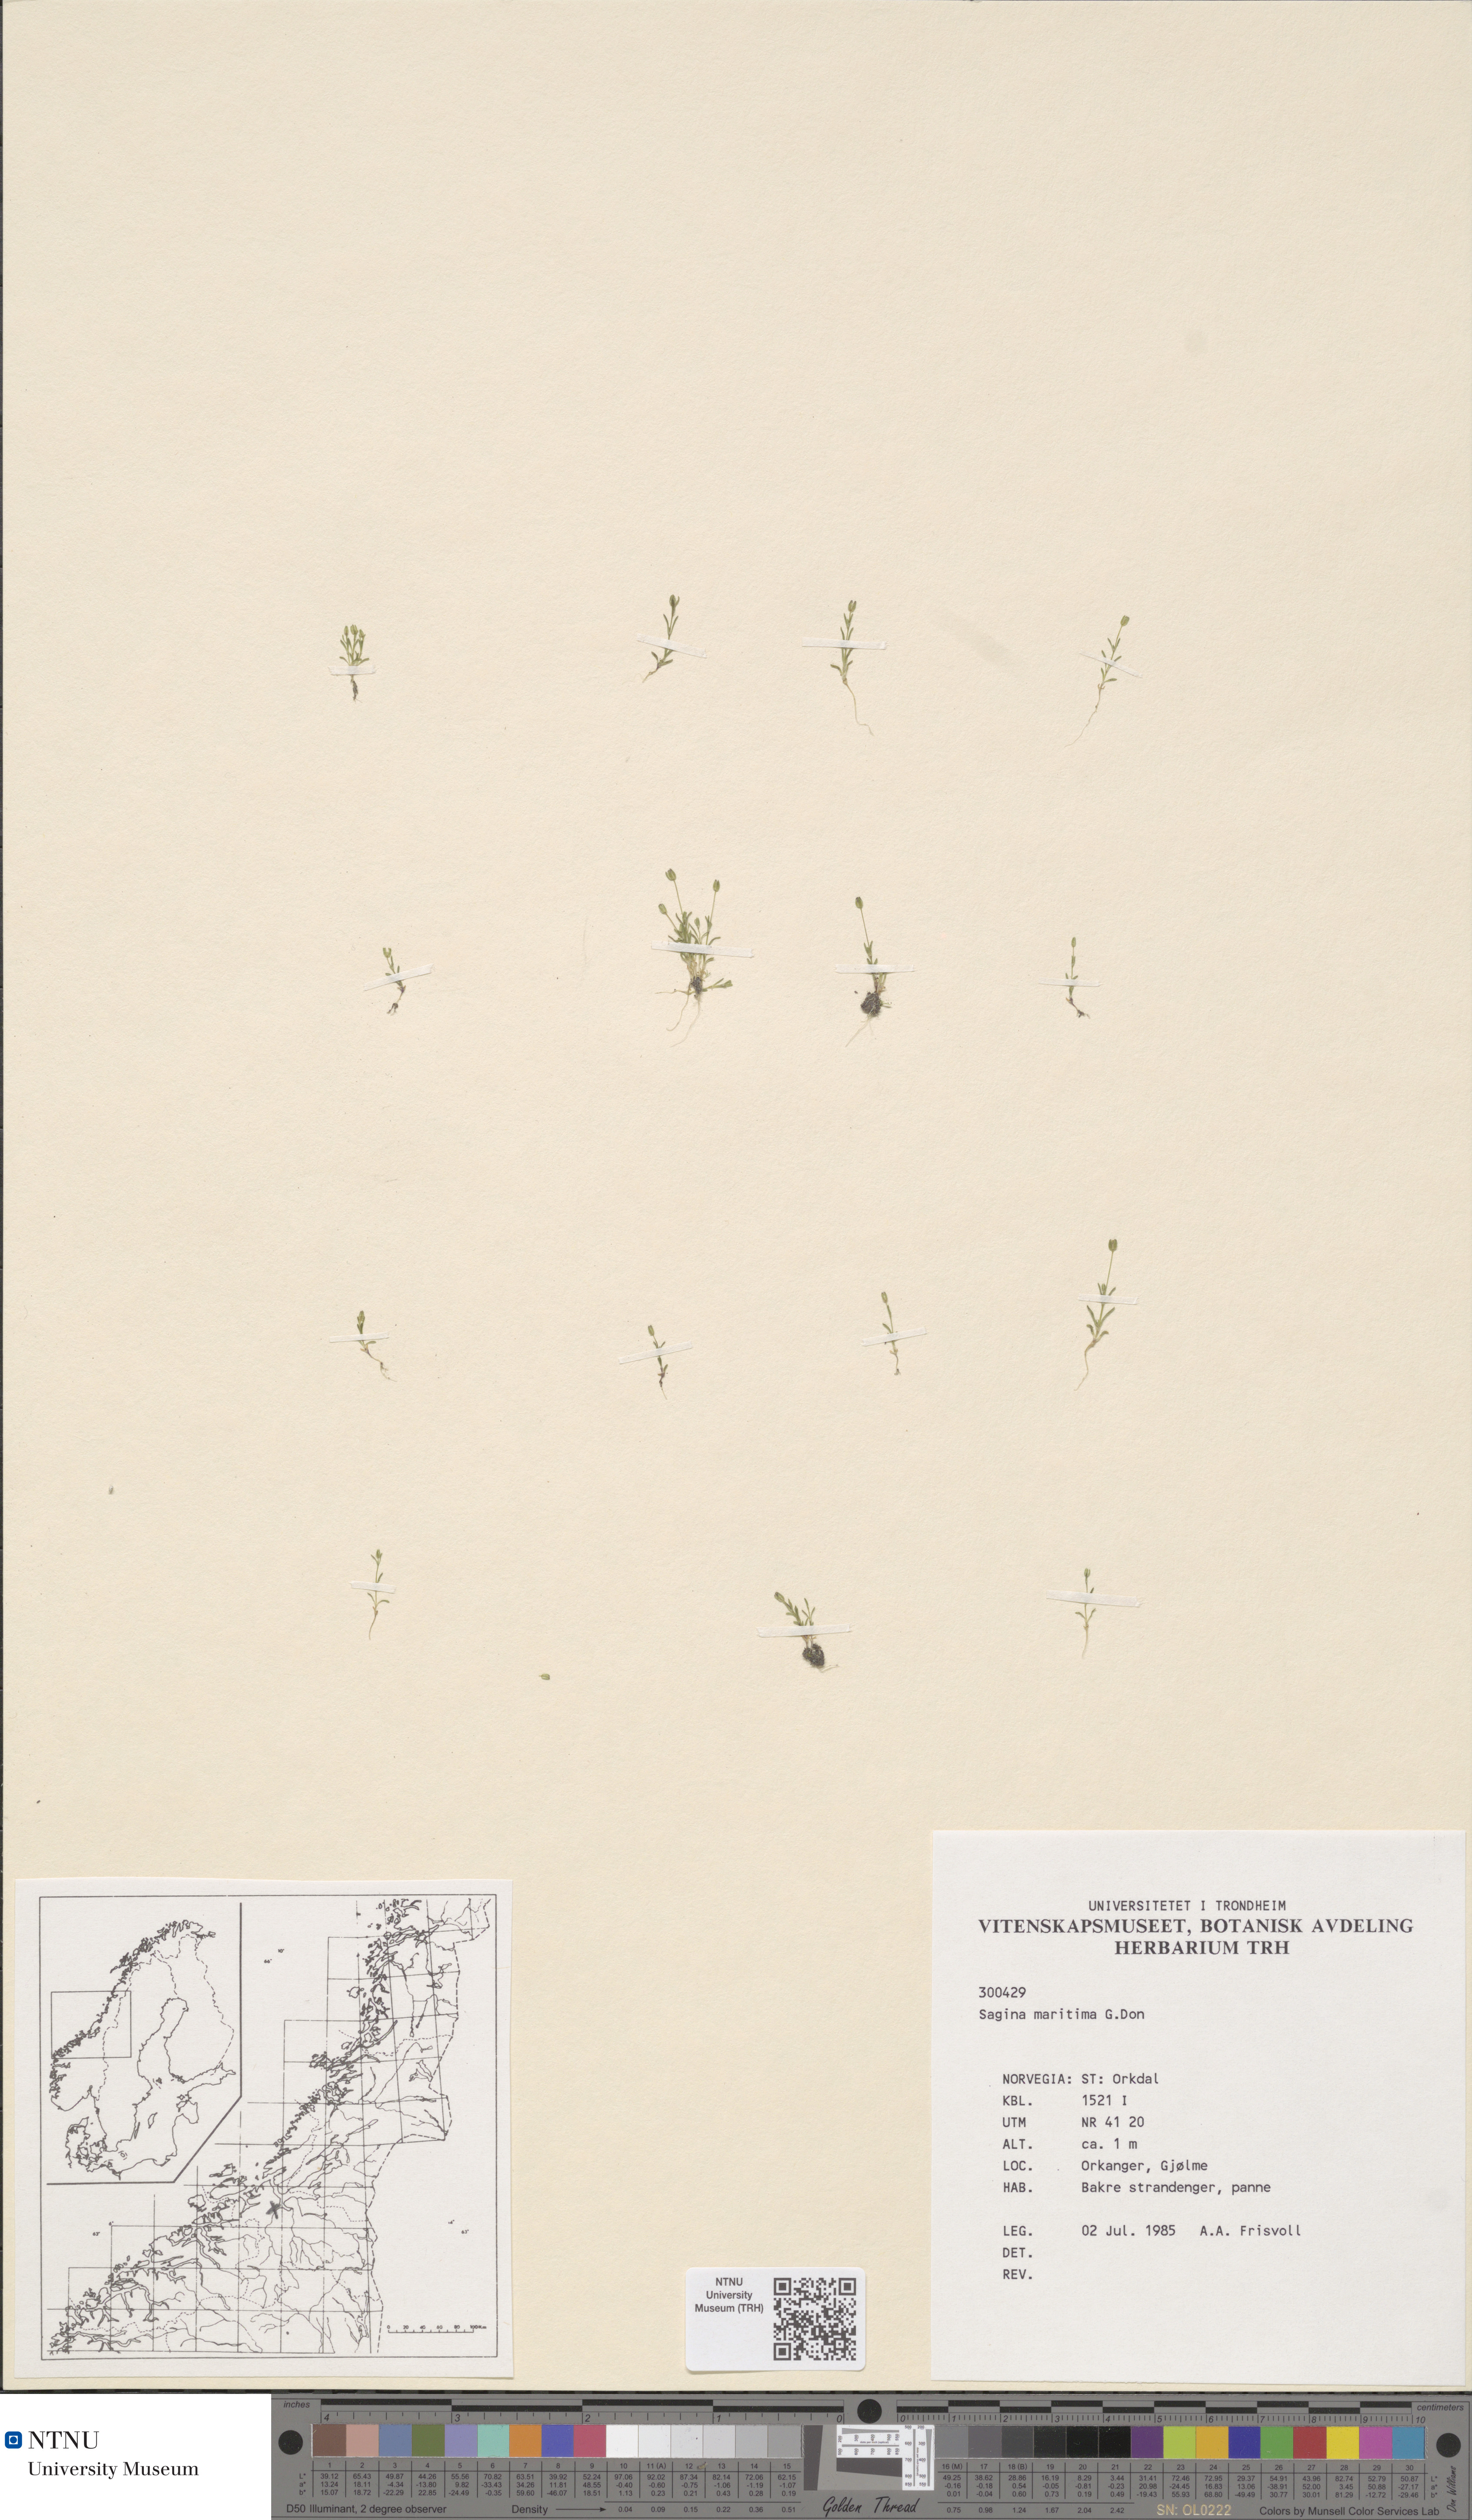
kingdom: Plantae
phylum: Tracheophyta
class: Magnoliopsida
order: Caryophyllales
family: Caryophyllaceae
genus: Sagina
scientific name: Sagina maritima
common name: Sea pearlwort
